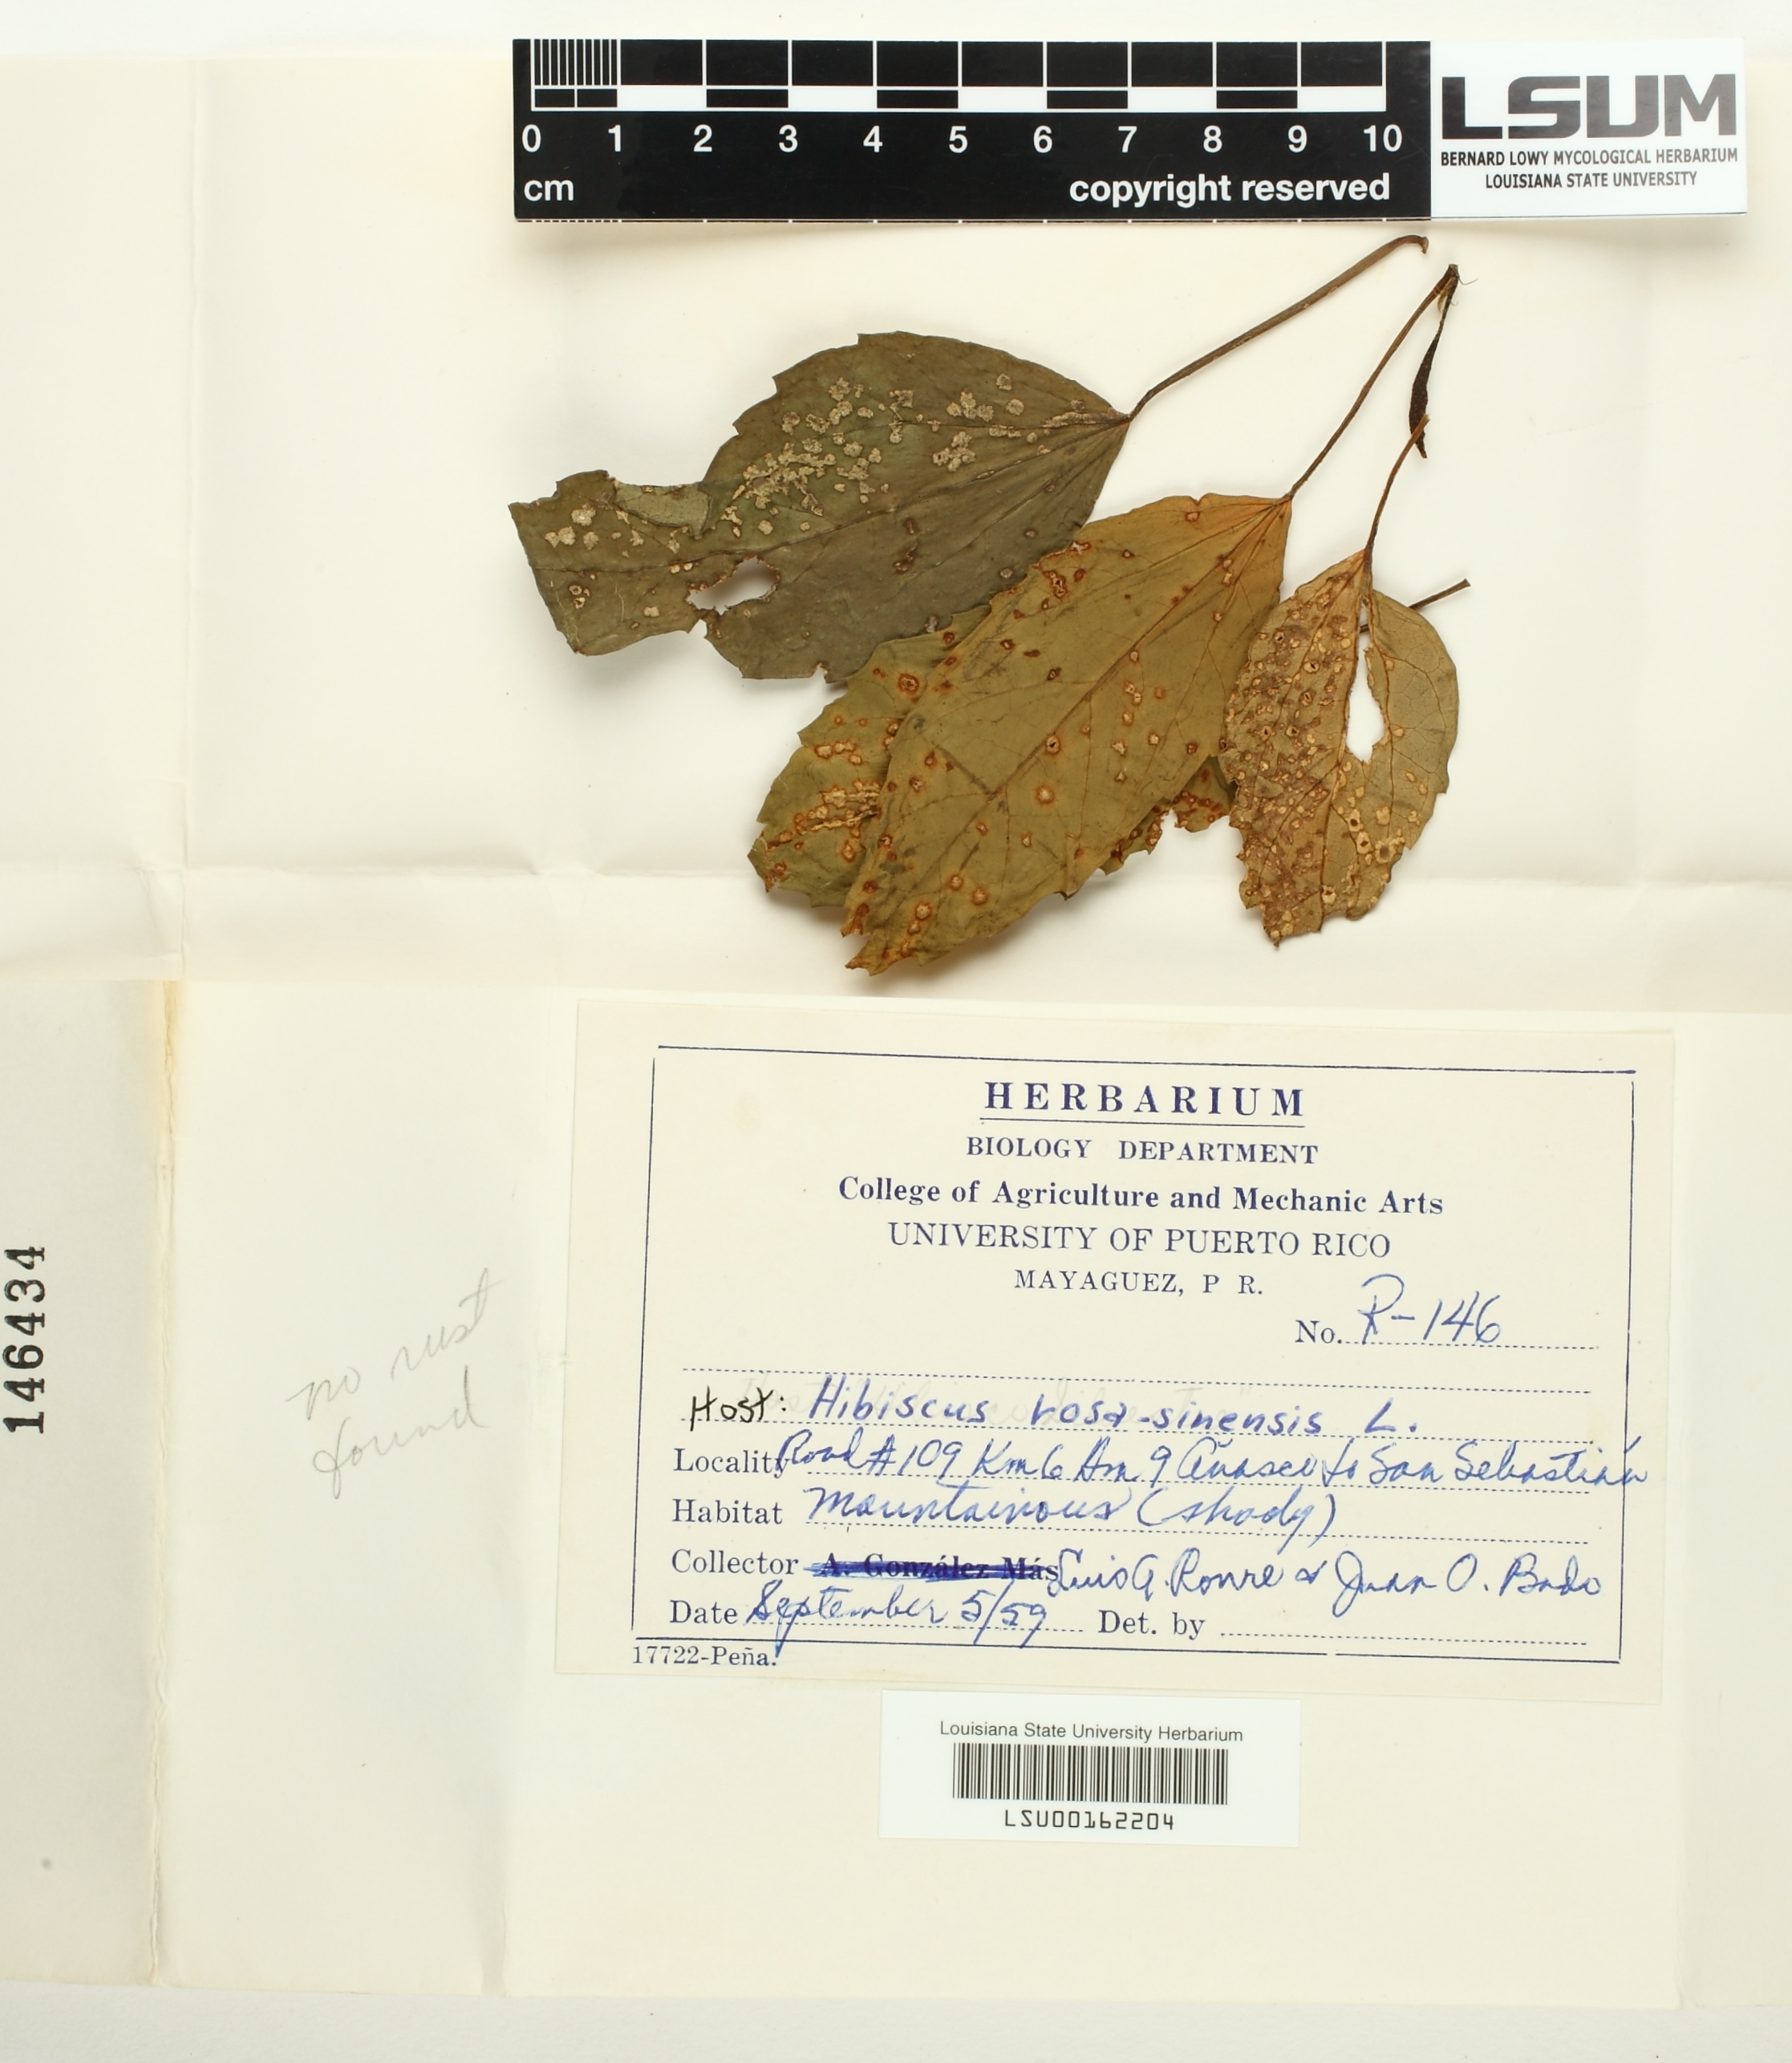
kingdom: Fungi
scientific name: Fungi
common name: Fungi
